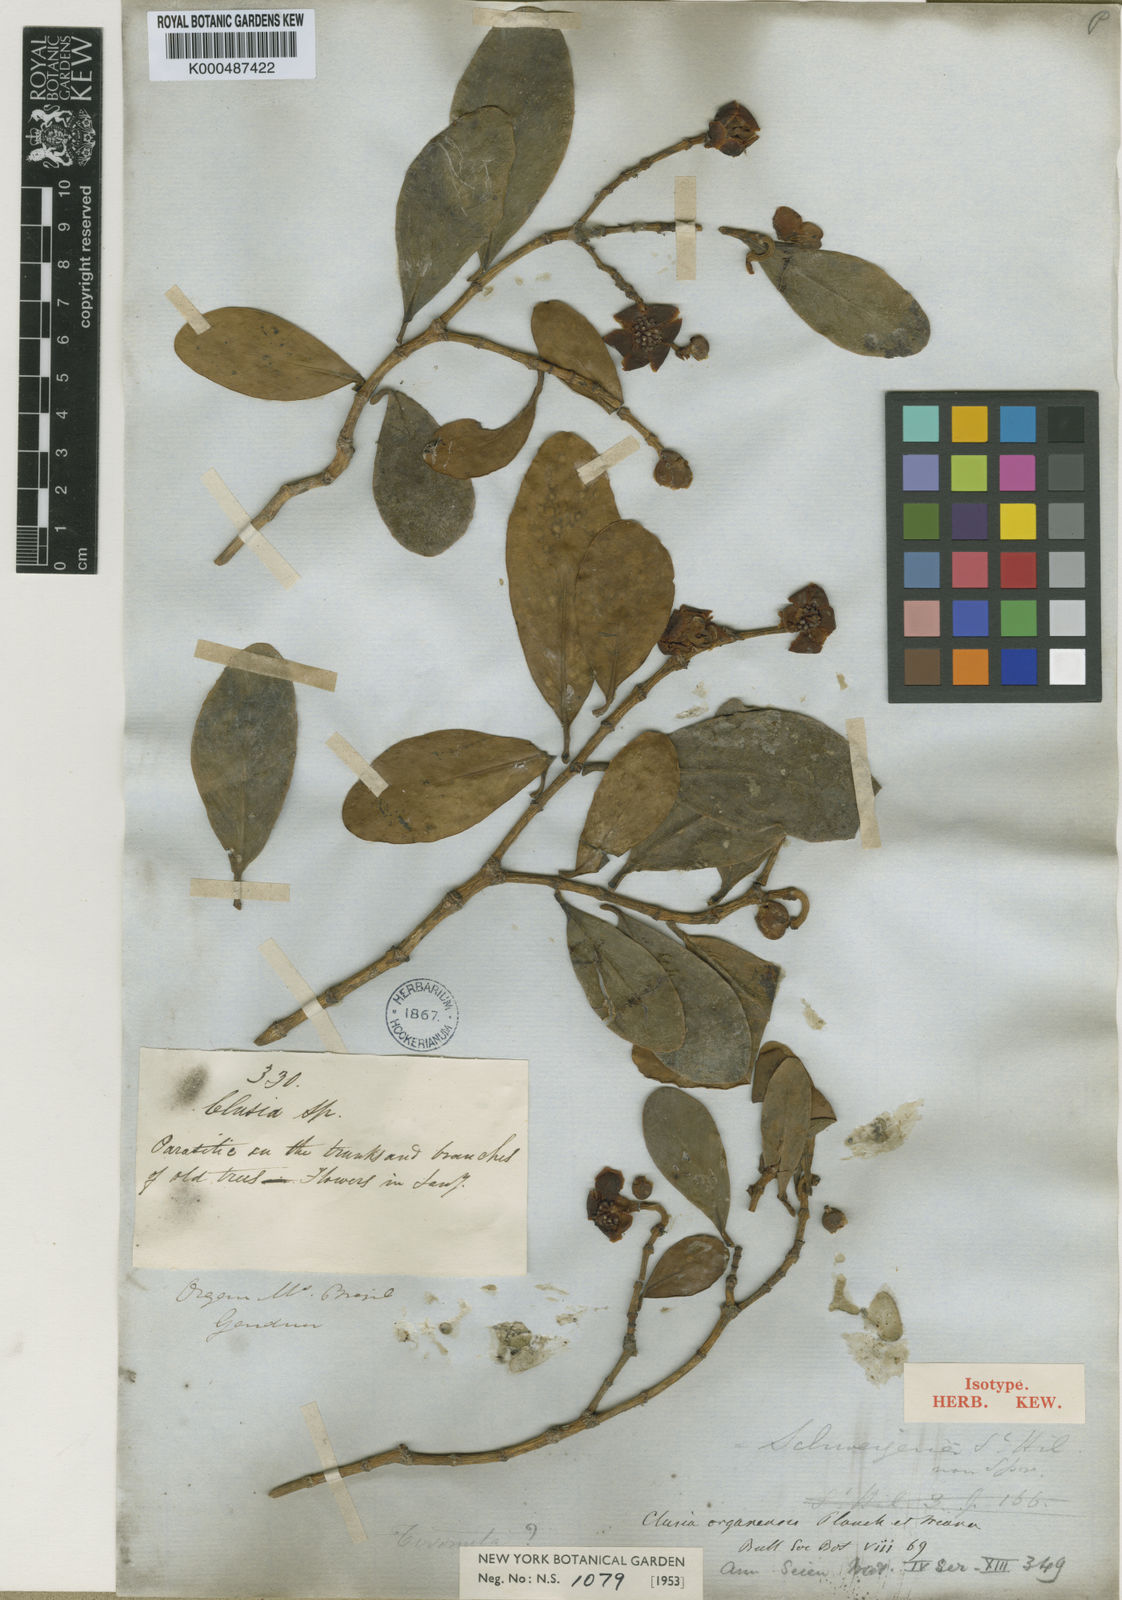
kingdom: Plantae
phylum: Tracheophyta
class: Magnoliopsida
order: Malpighiales
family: Clusiaceae
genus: Clusia
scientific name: Clusia organensis
